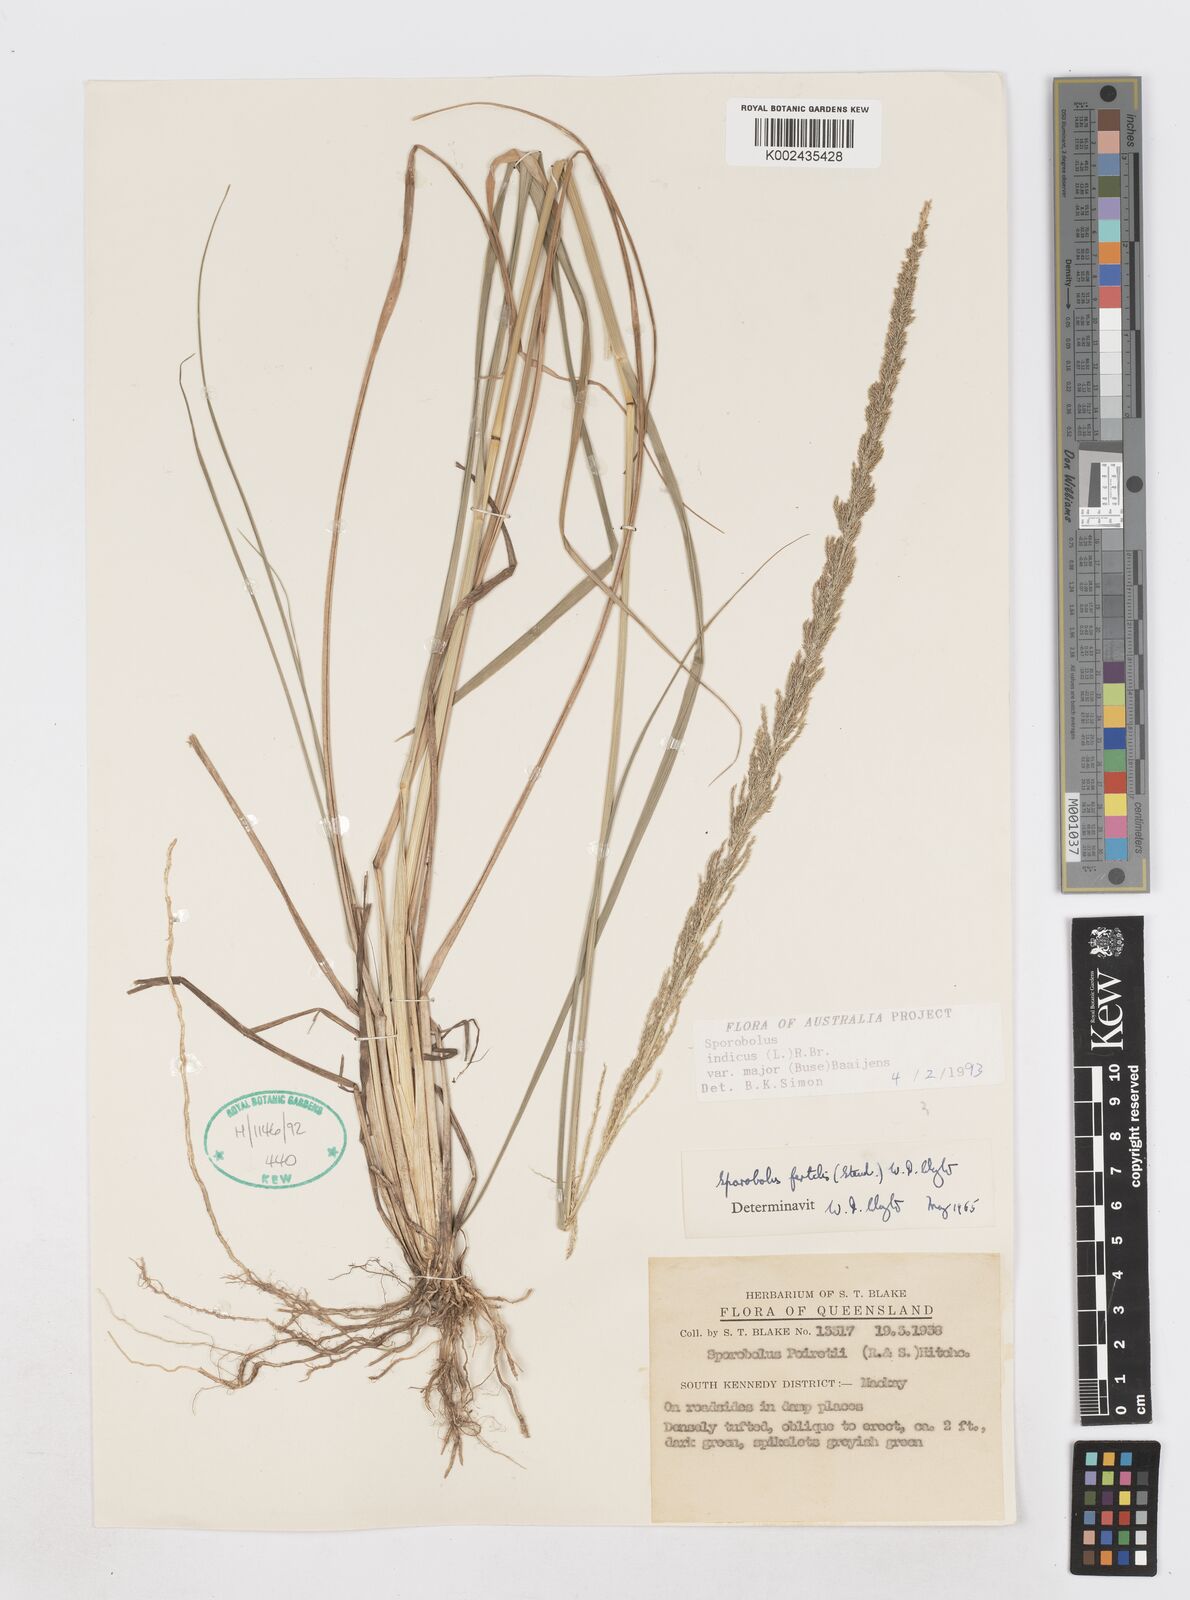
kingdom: Plantae
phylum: Tracheophyta
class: Liliopsida
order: Poales
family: Poaceae
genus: Sporobolus
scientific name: Sporobolus fertilis
